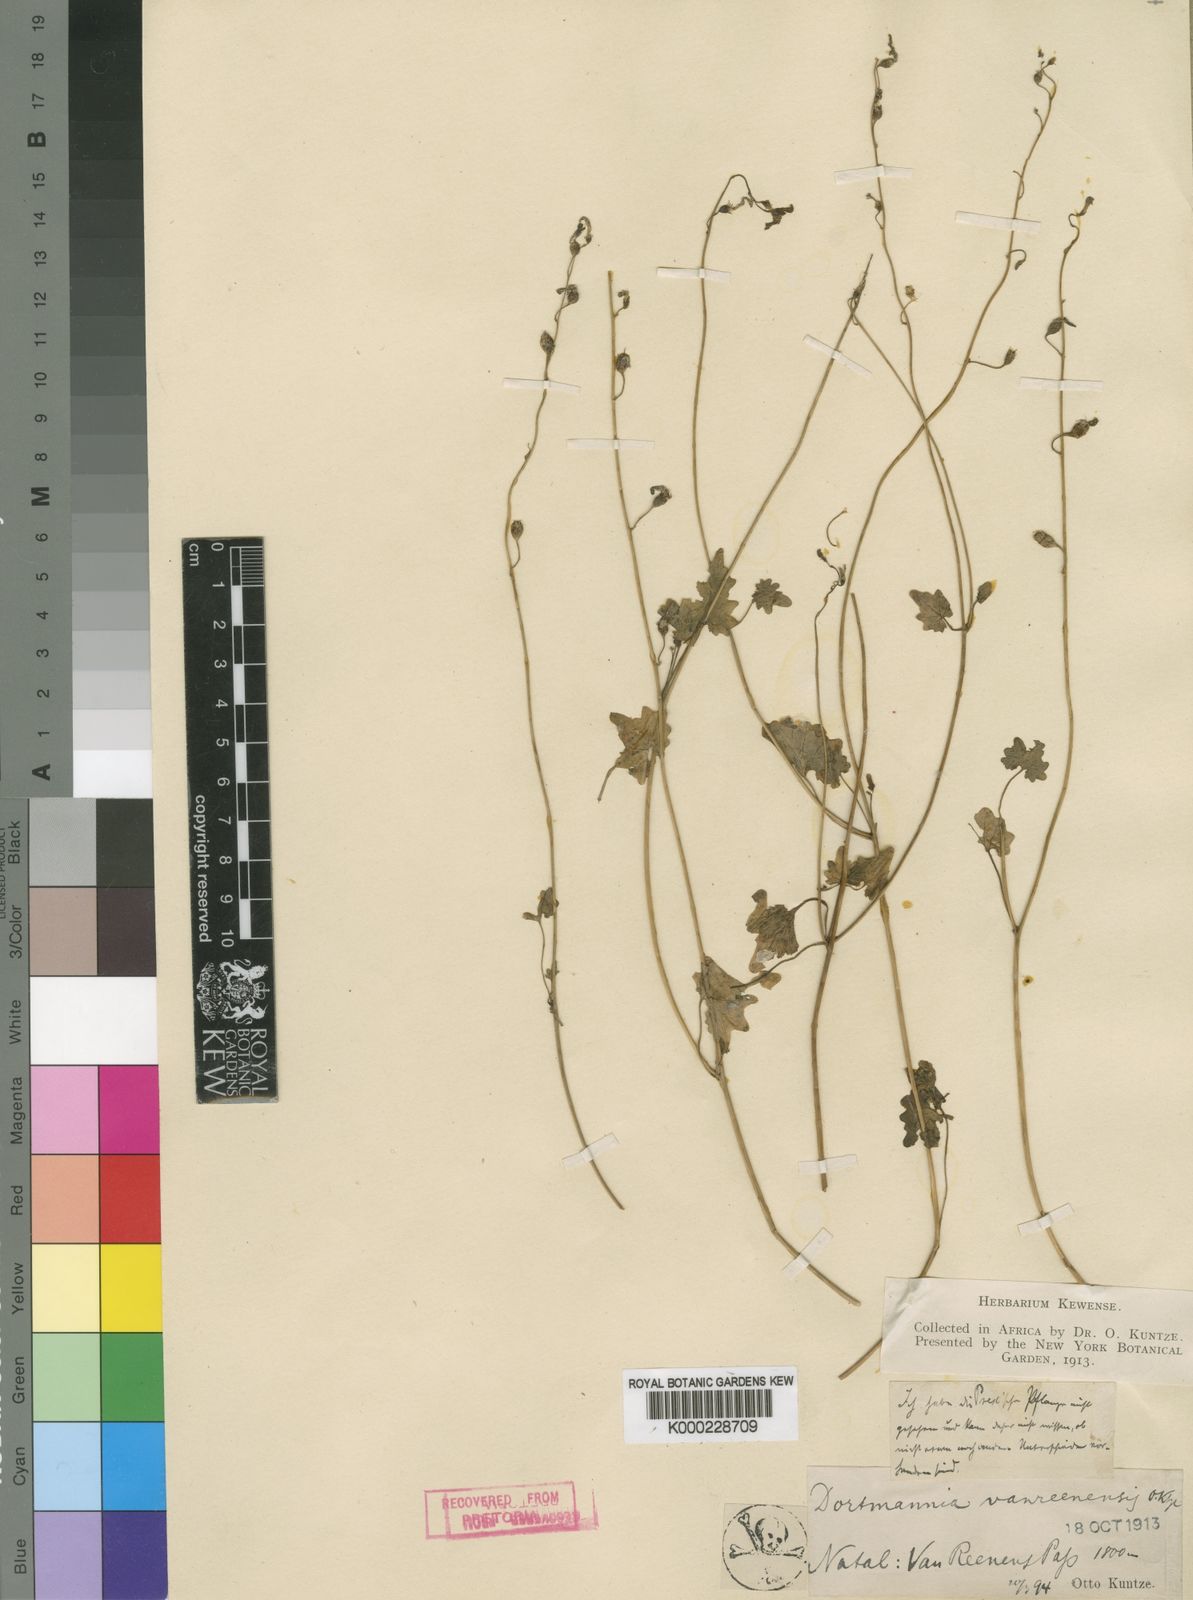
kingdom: Plantae
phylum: Tracheophyta
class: Magnoliopsida
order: Asterales
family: Campanulaceae
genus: Lobelia
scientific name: Lobelia vanreenensis
